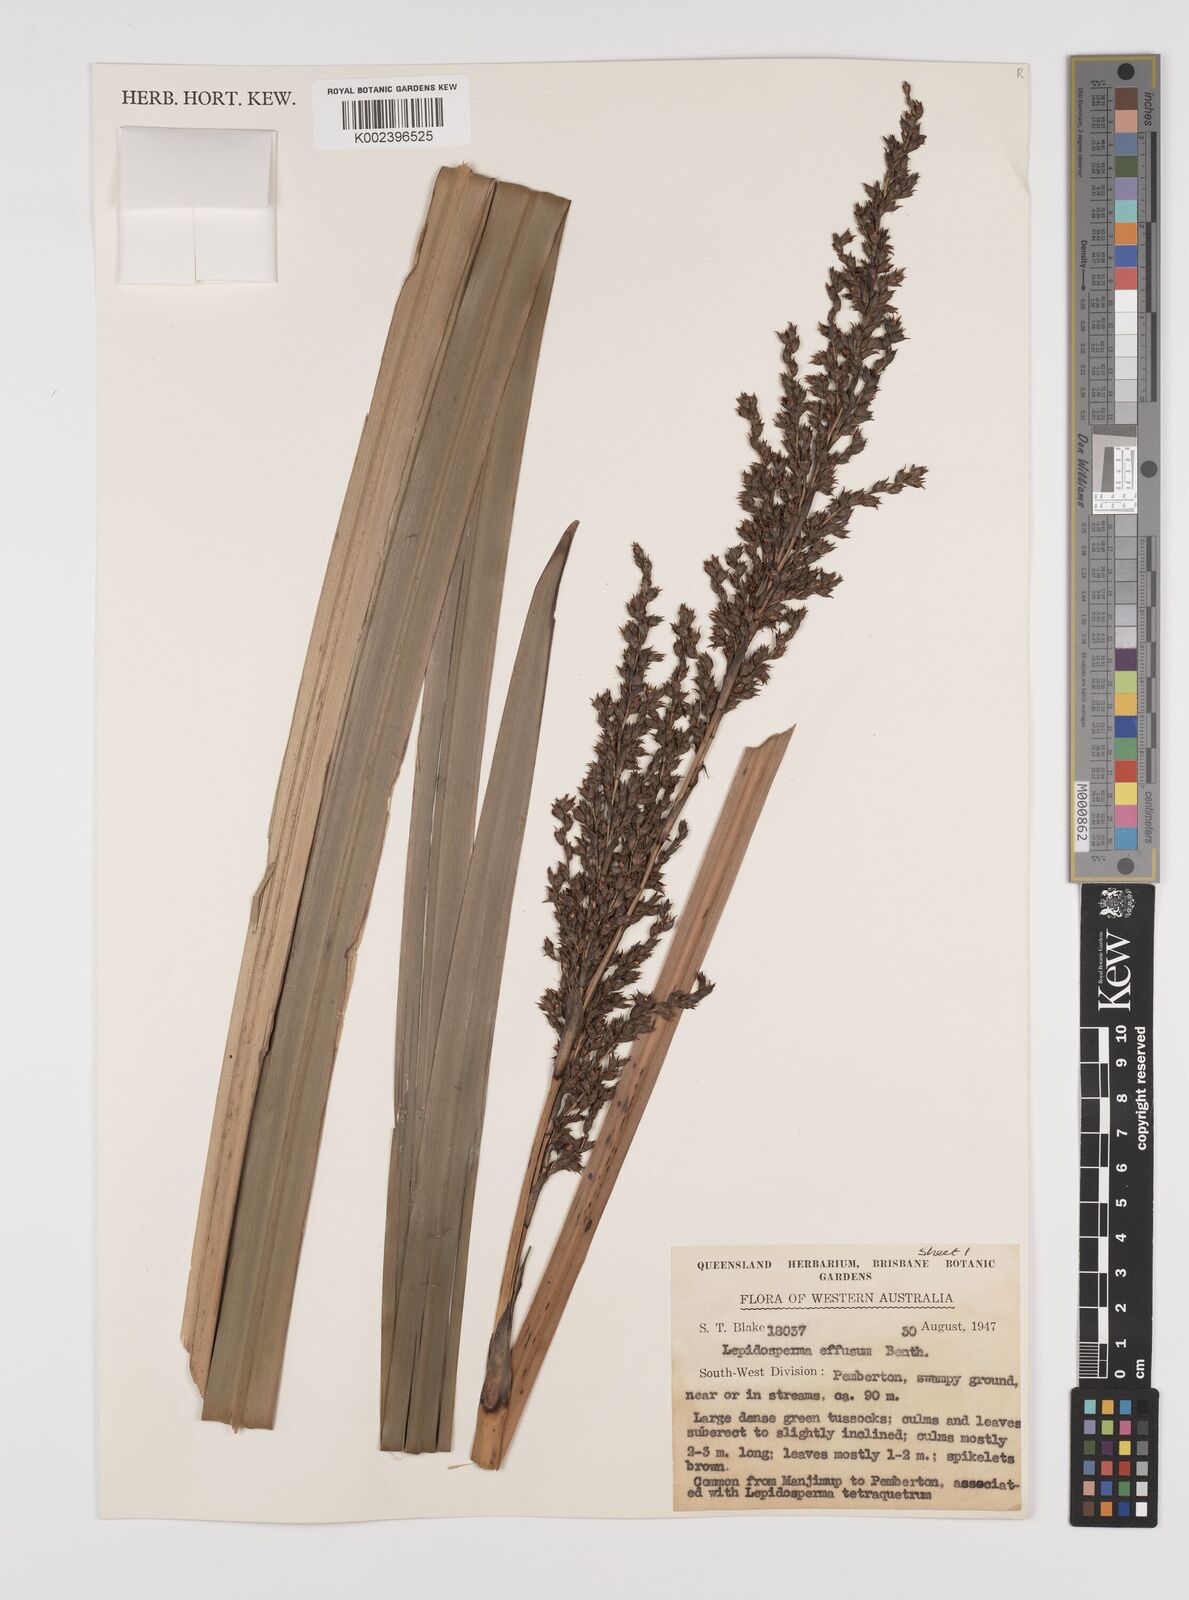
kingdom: Plantae
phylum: Tracheophyta
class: Liliopsida
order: Poales
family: Cyperaceae
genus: Lepidosperma
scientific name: Lepidosperma effusum
